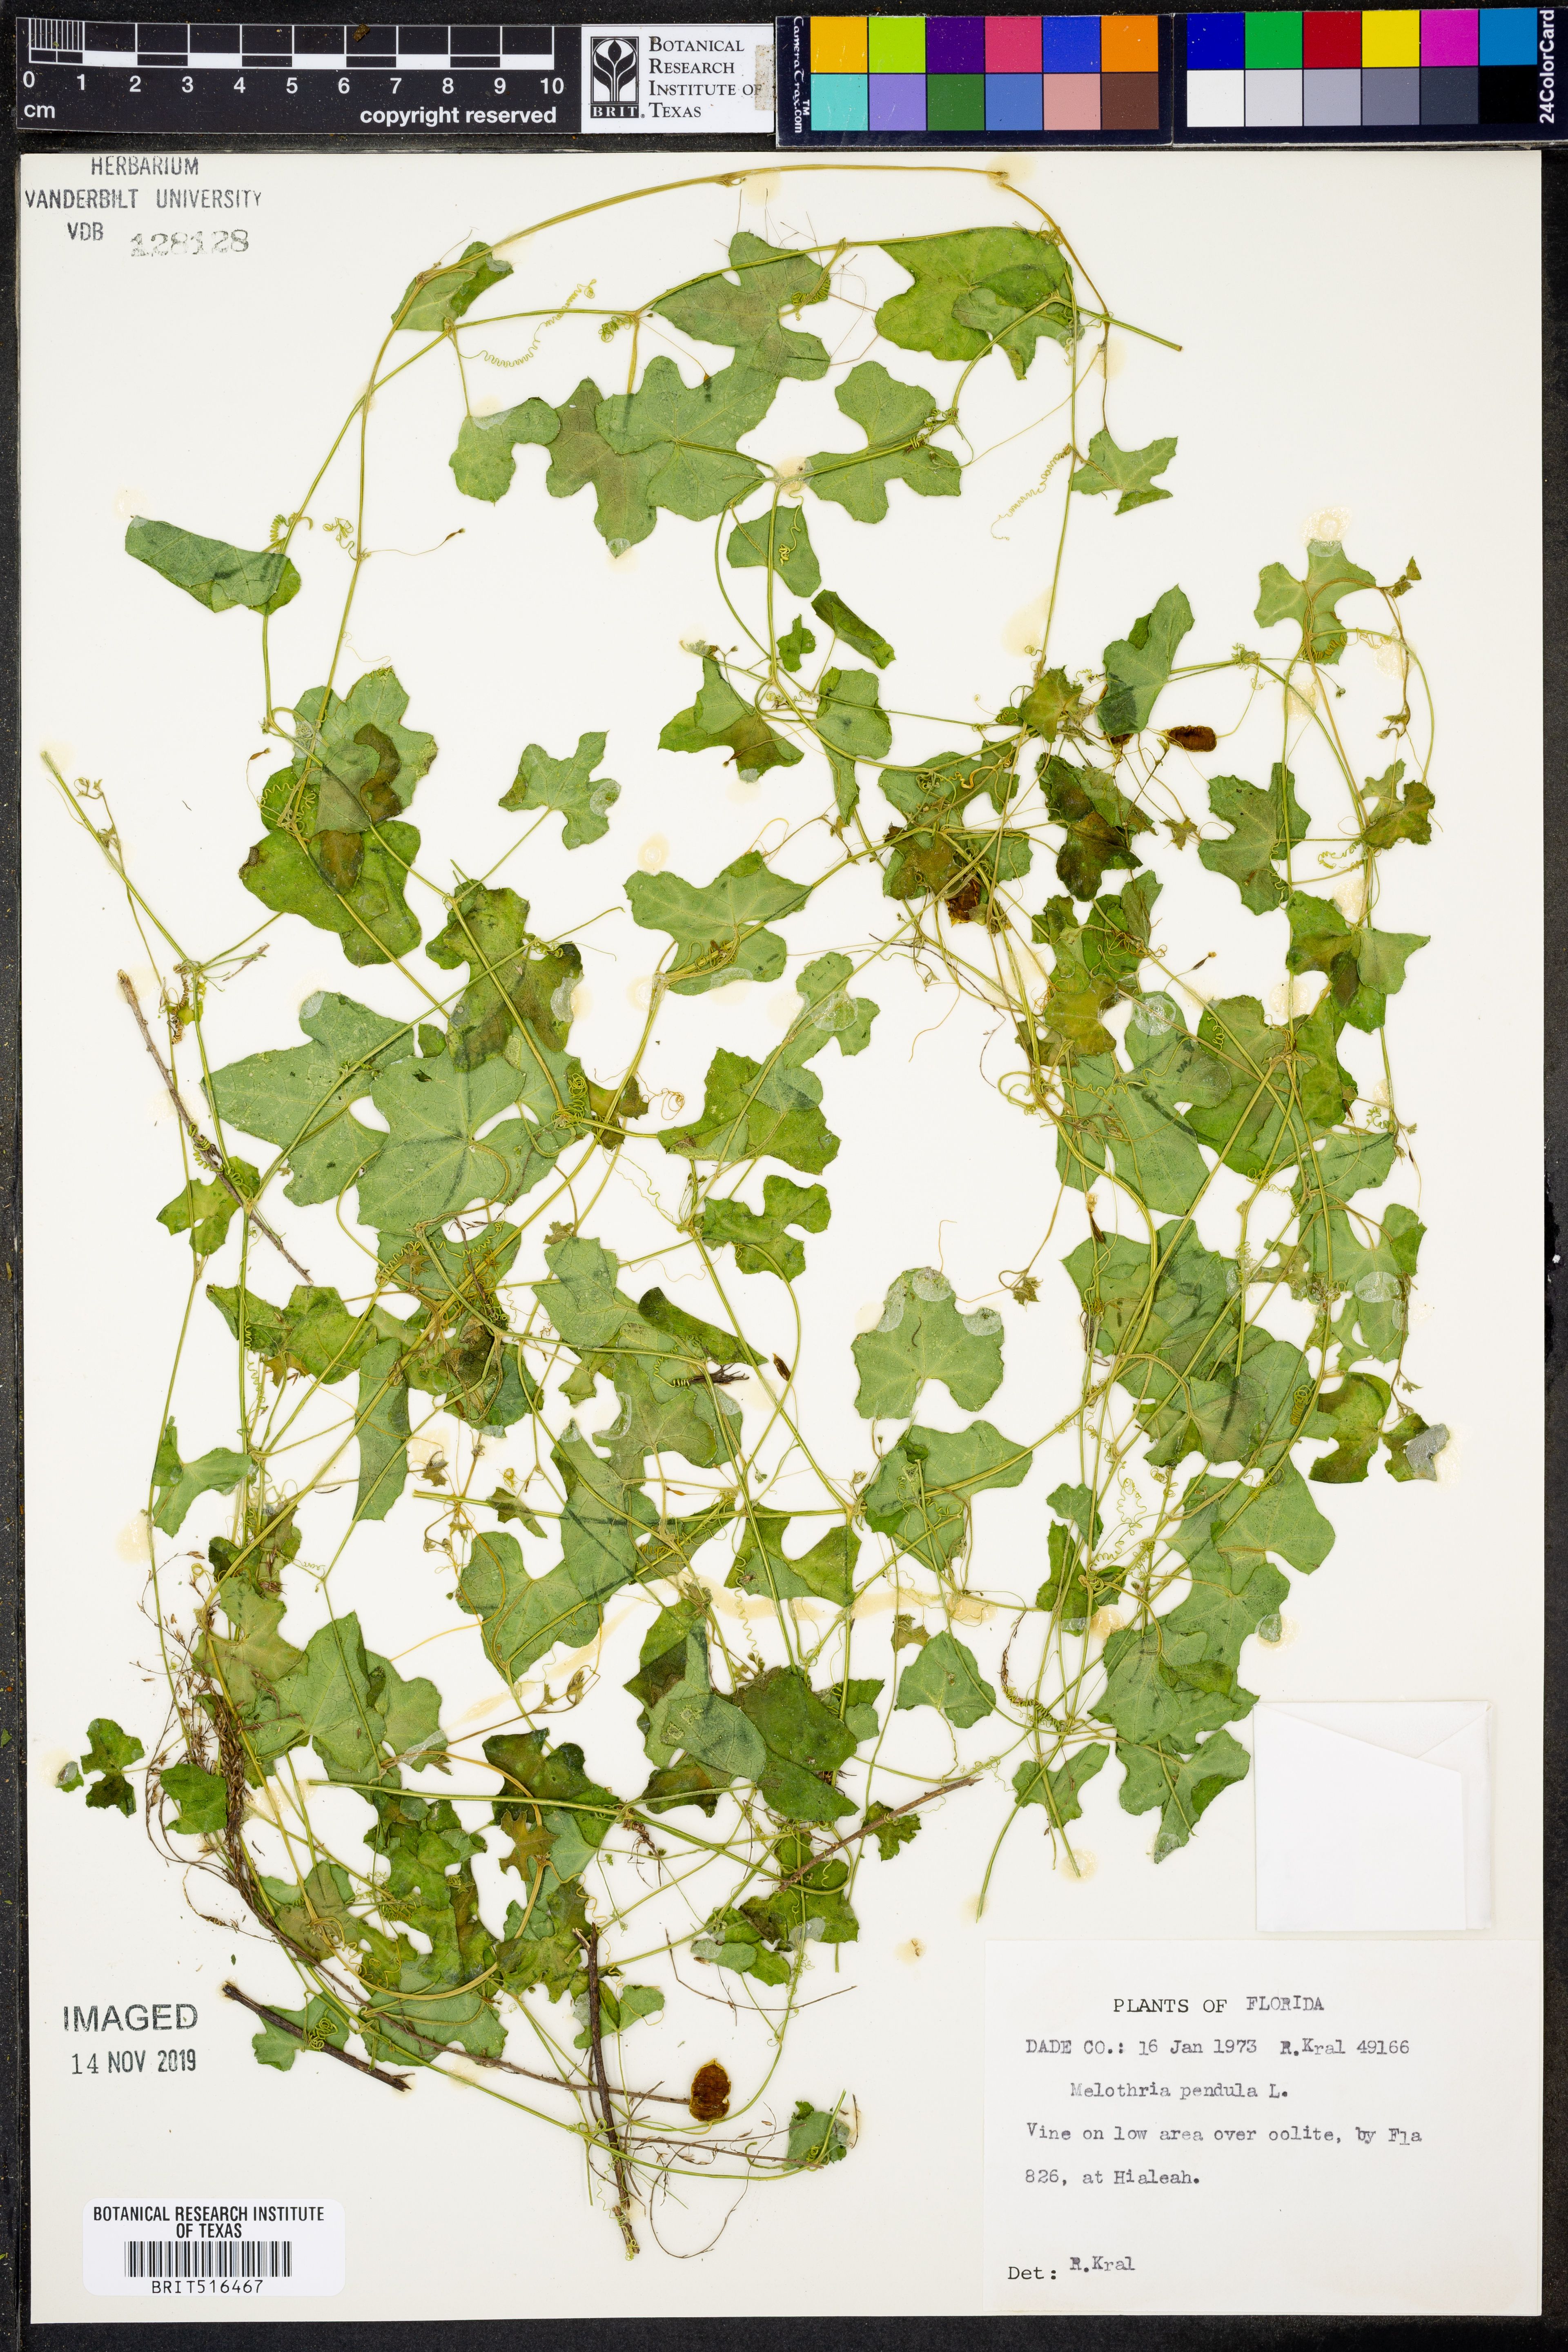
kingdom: Plantae
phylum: Tracheophyta
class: Magnoliopsida
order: Cucurbitales
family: Cucurbitaceae
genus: Melothria
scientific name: Melothria pendula
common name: Creeping-cucumber
